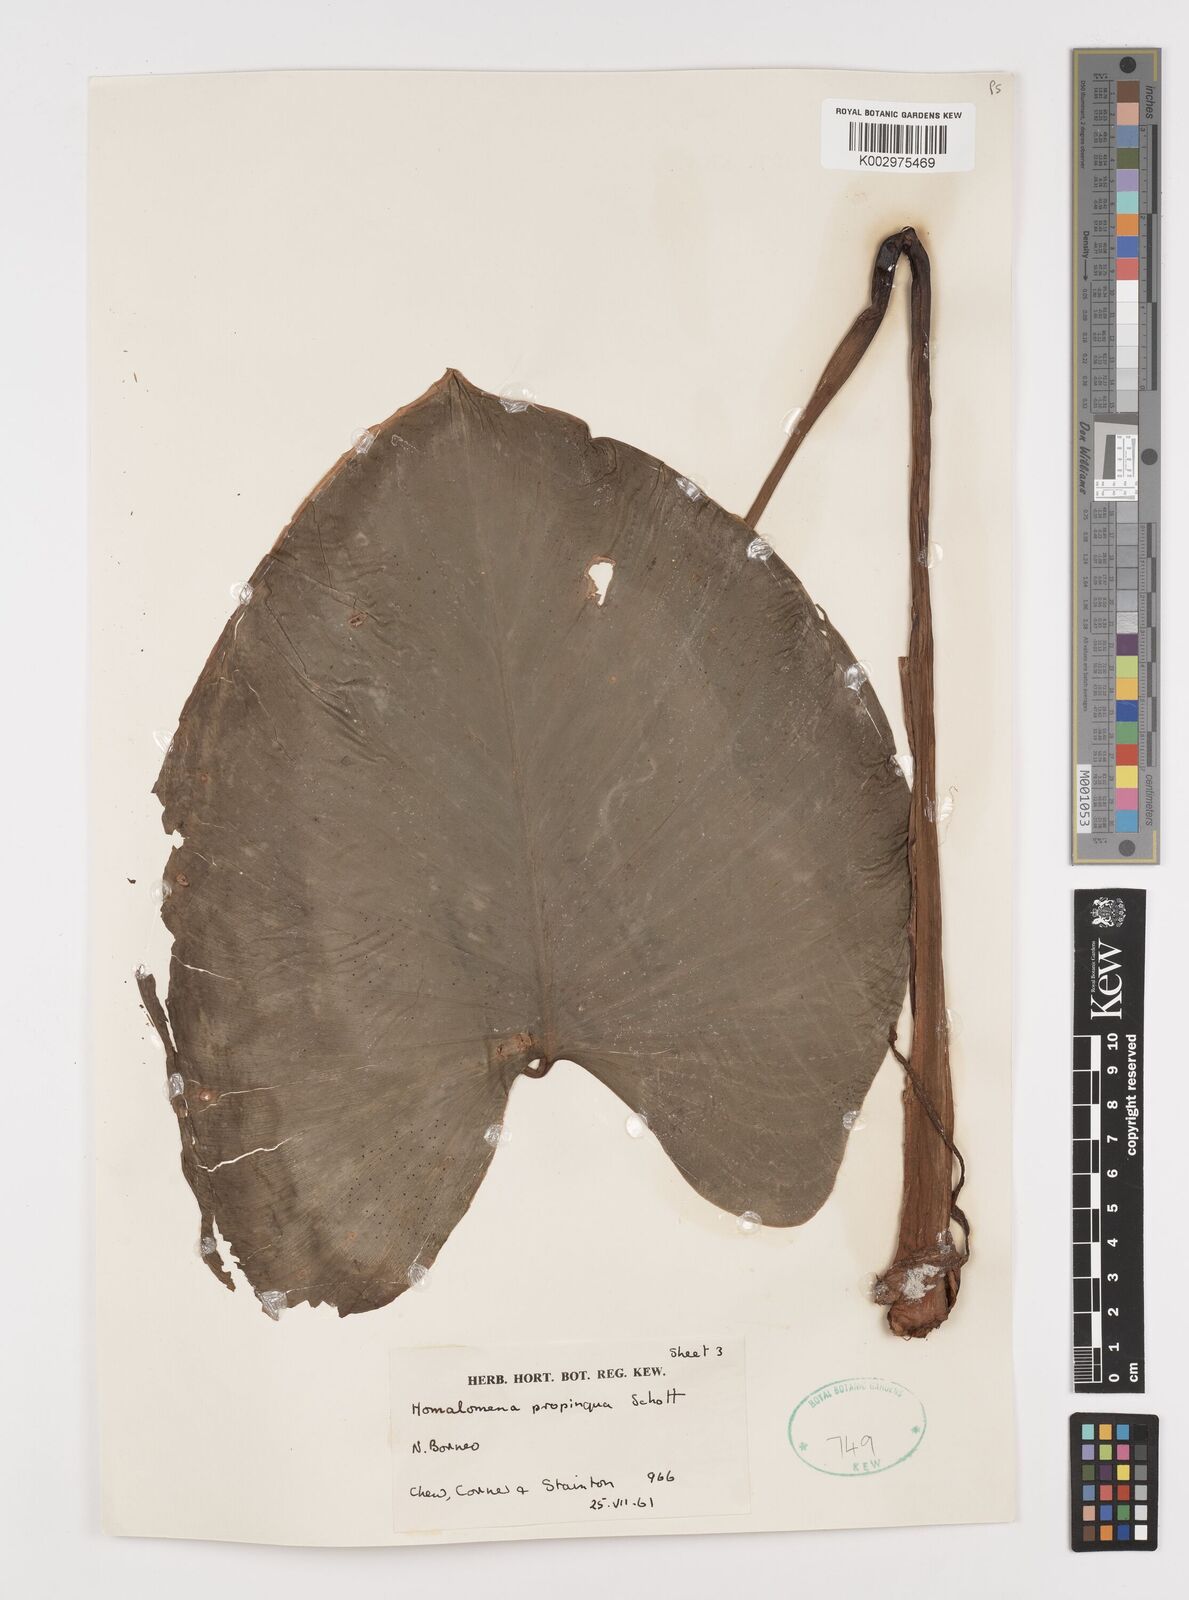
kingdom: Plantae
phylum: Tracheophyta
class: Liliopsida
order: Alismatales
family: Araceae
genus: Homalomena
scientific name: Homalomena humilis
